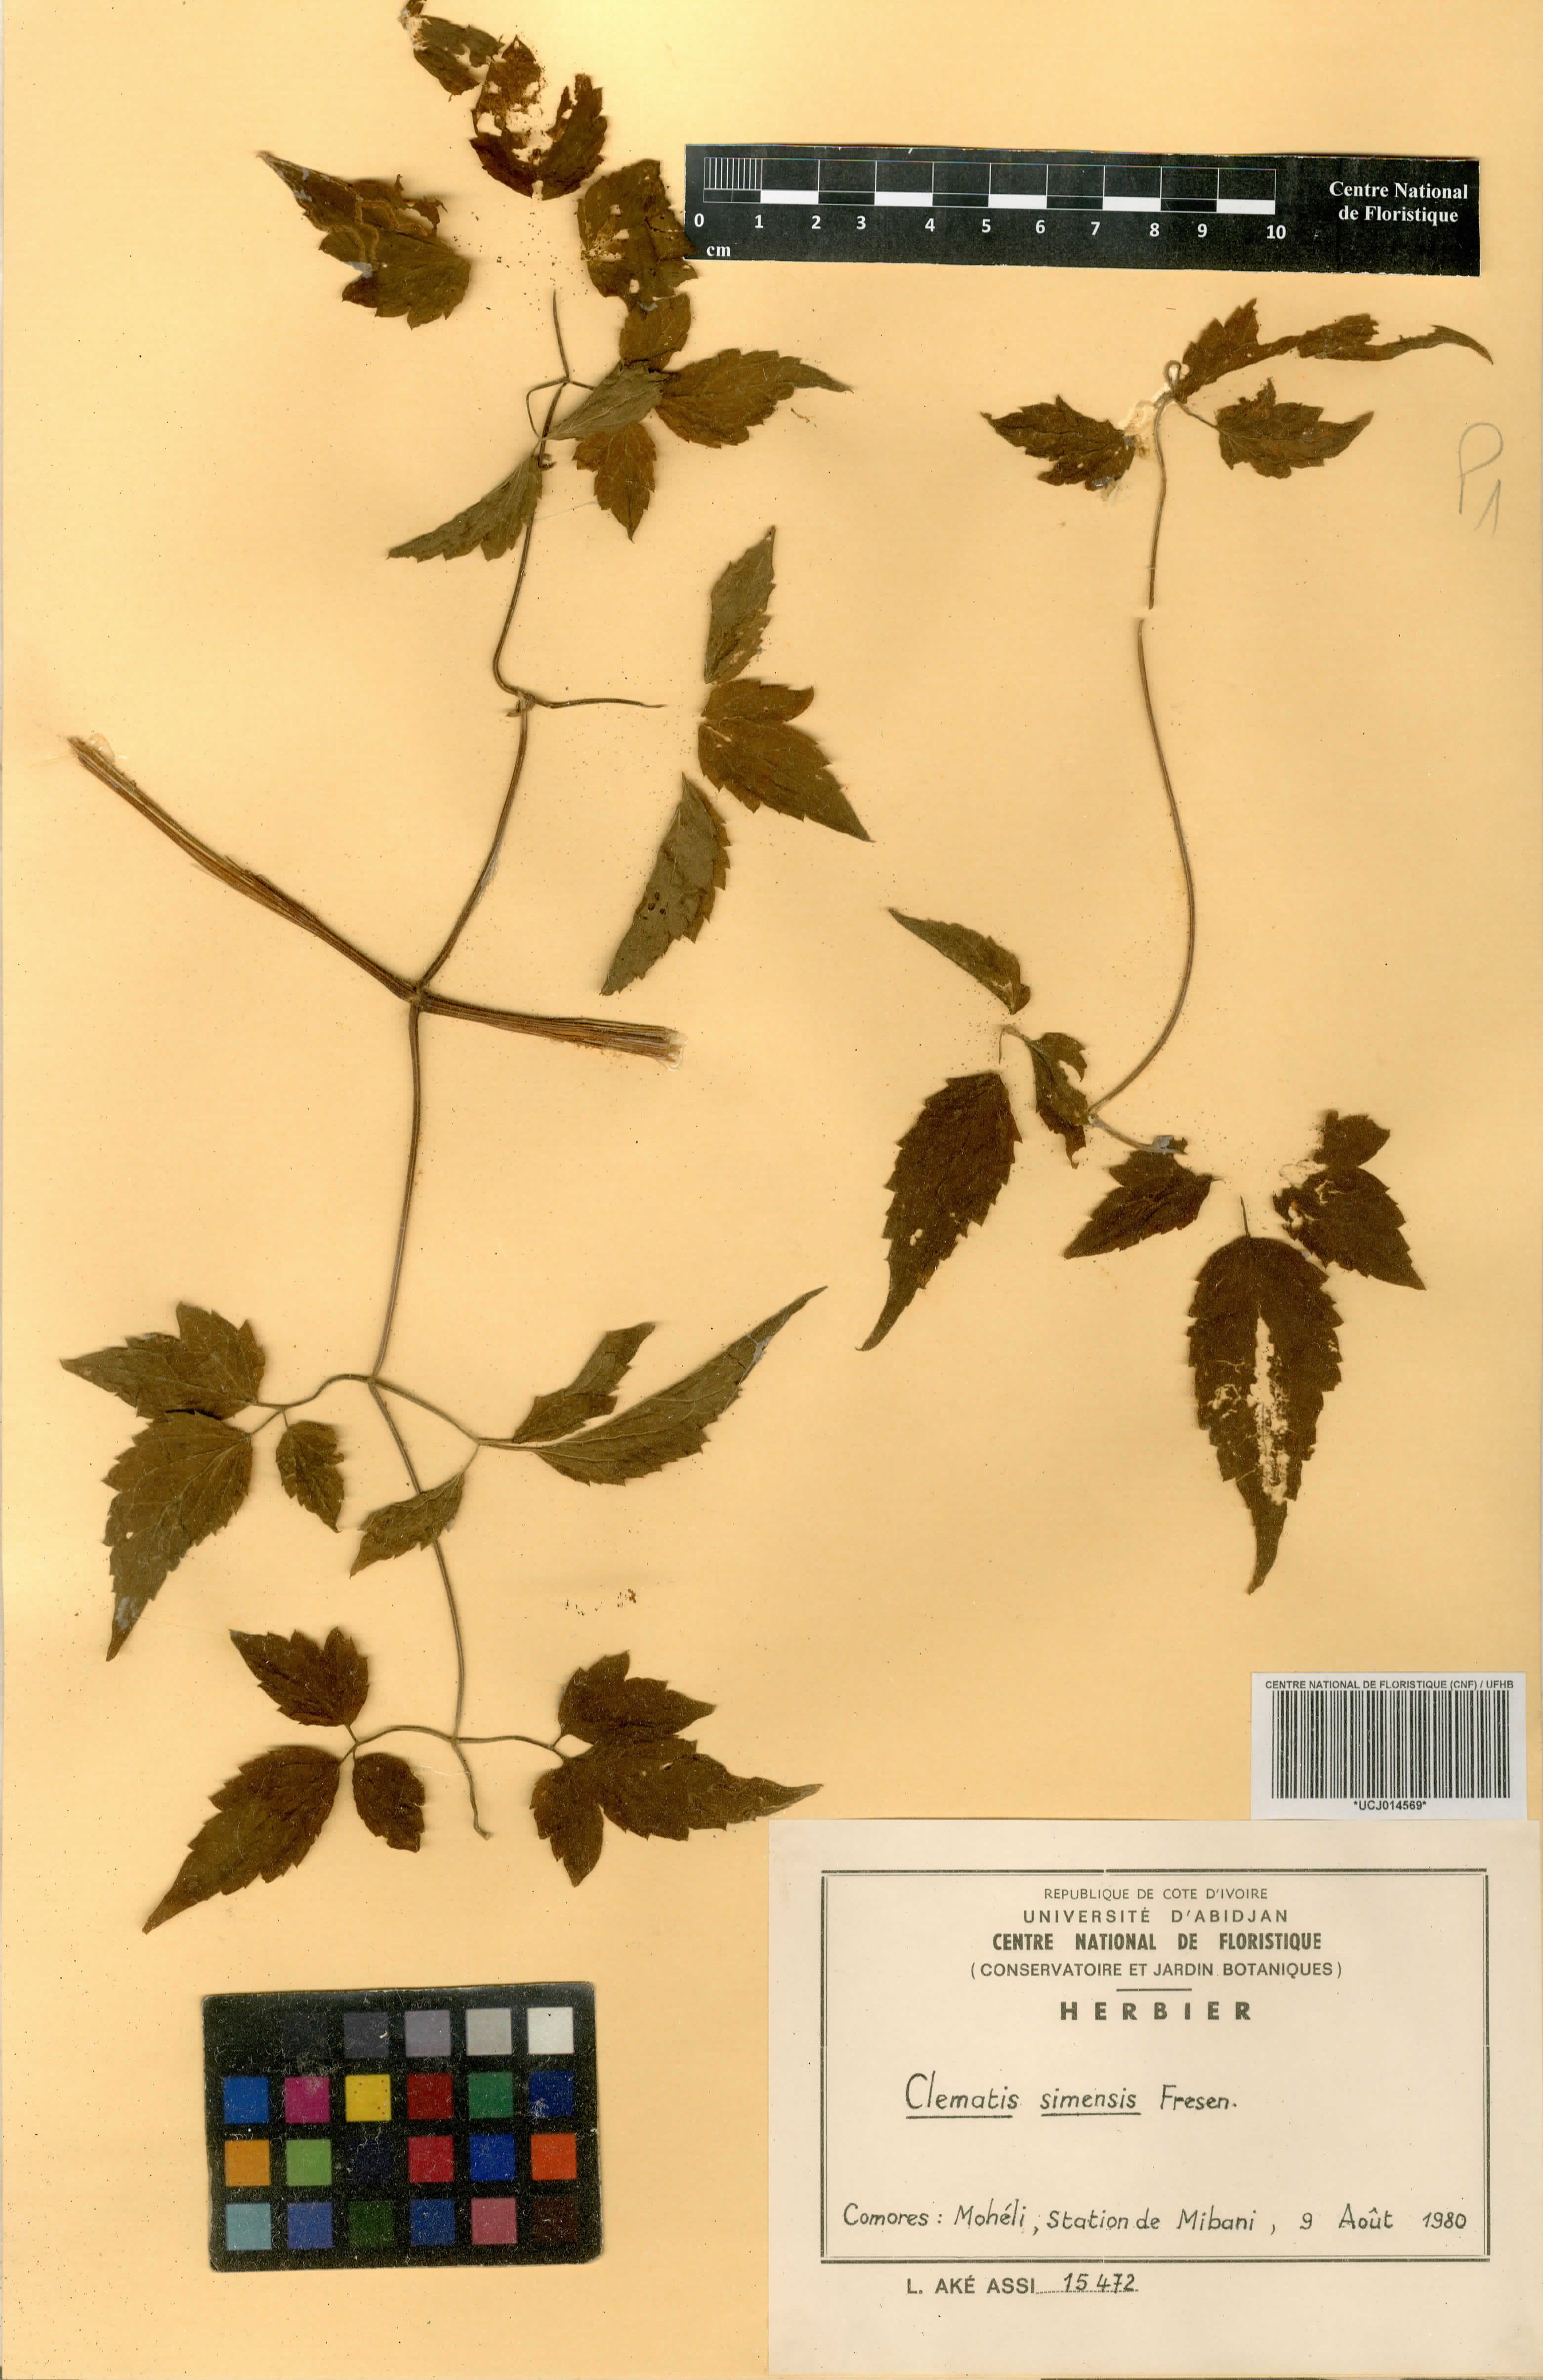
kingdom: Plantae
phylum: Tracheophyta
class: Magnoliopsida
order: Ranunculales
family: Ranunculaceae
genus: Clematis
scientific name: Clematis simensis
